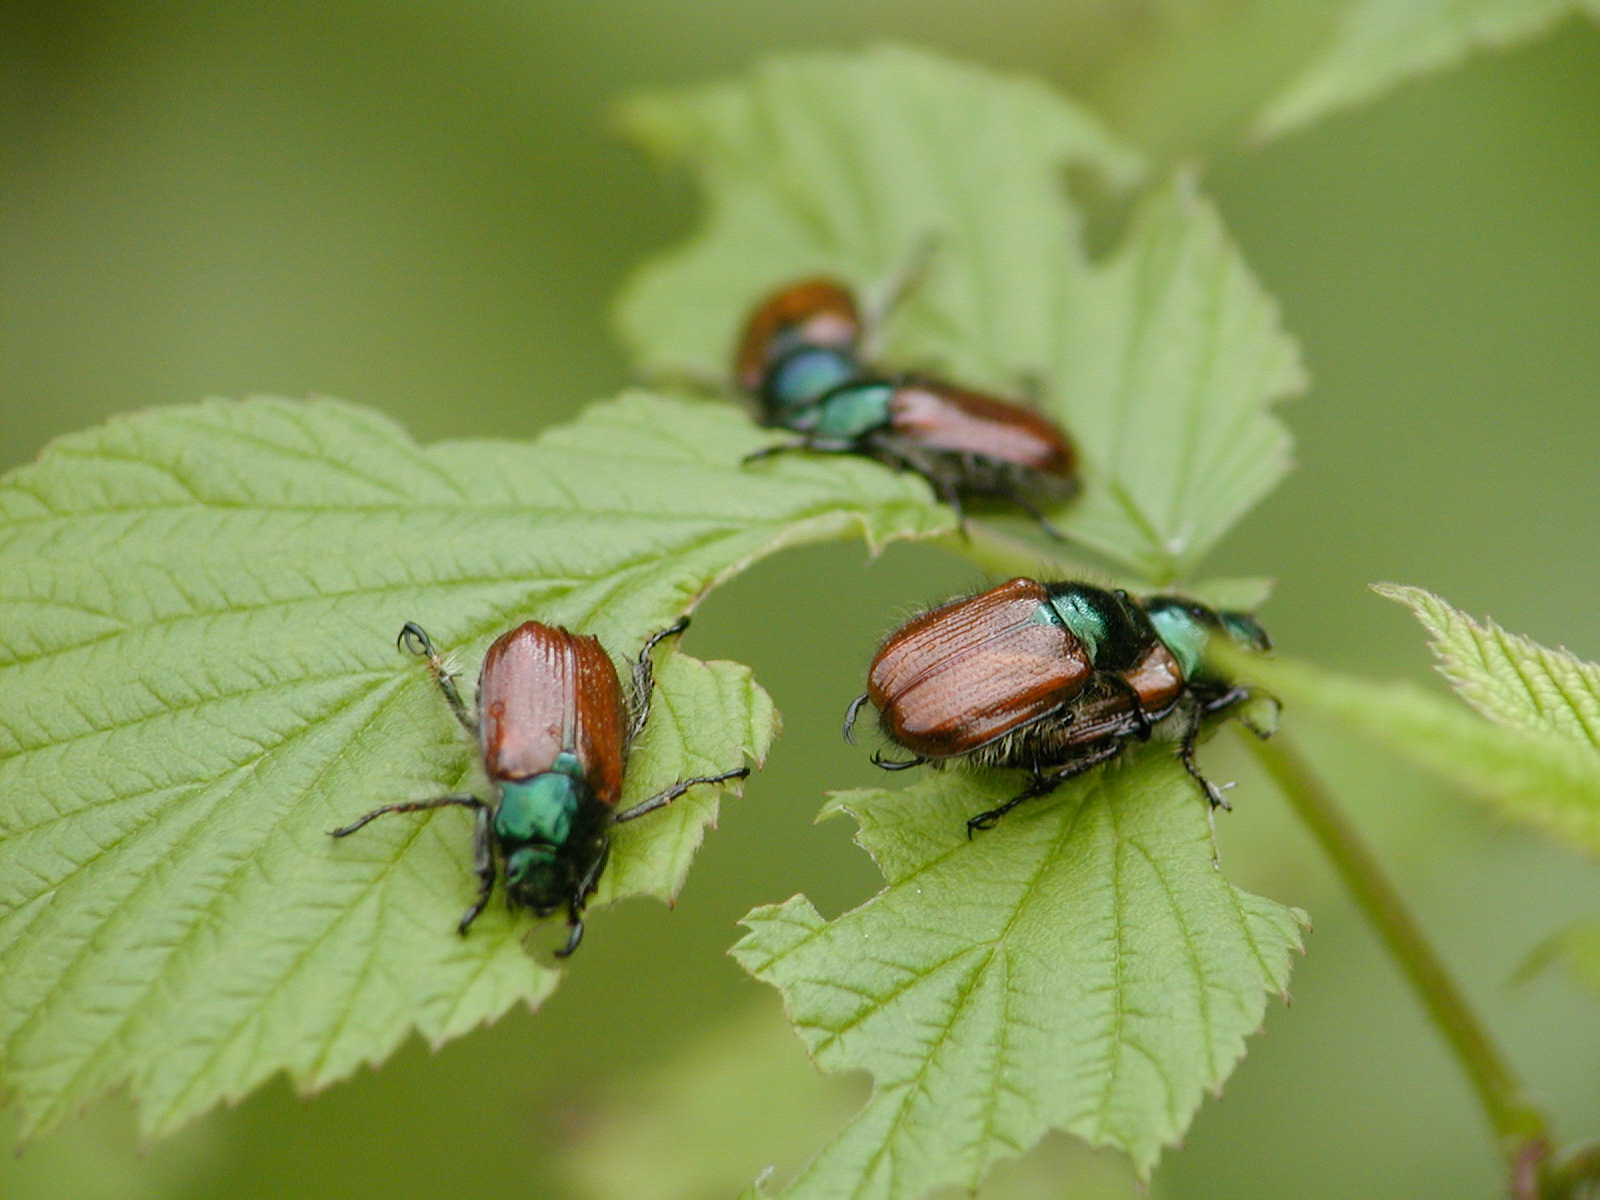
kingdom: Animalia
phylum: Arthropoda
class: Insecta
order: Coleoptera
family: Scarabaeidae
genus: Anomala
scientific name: Anomala dubia
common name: Dune chafer
